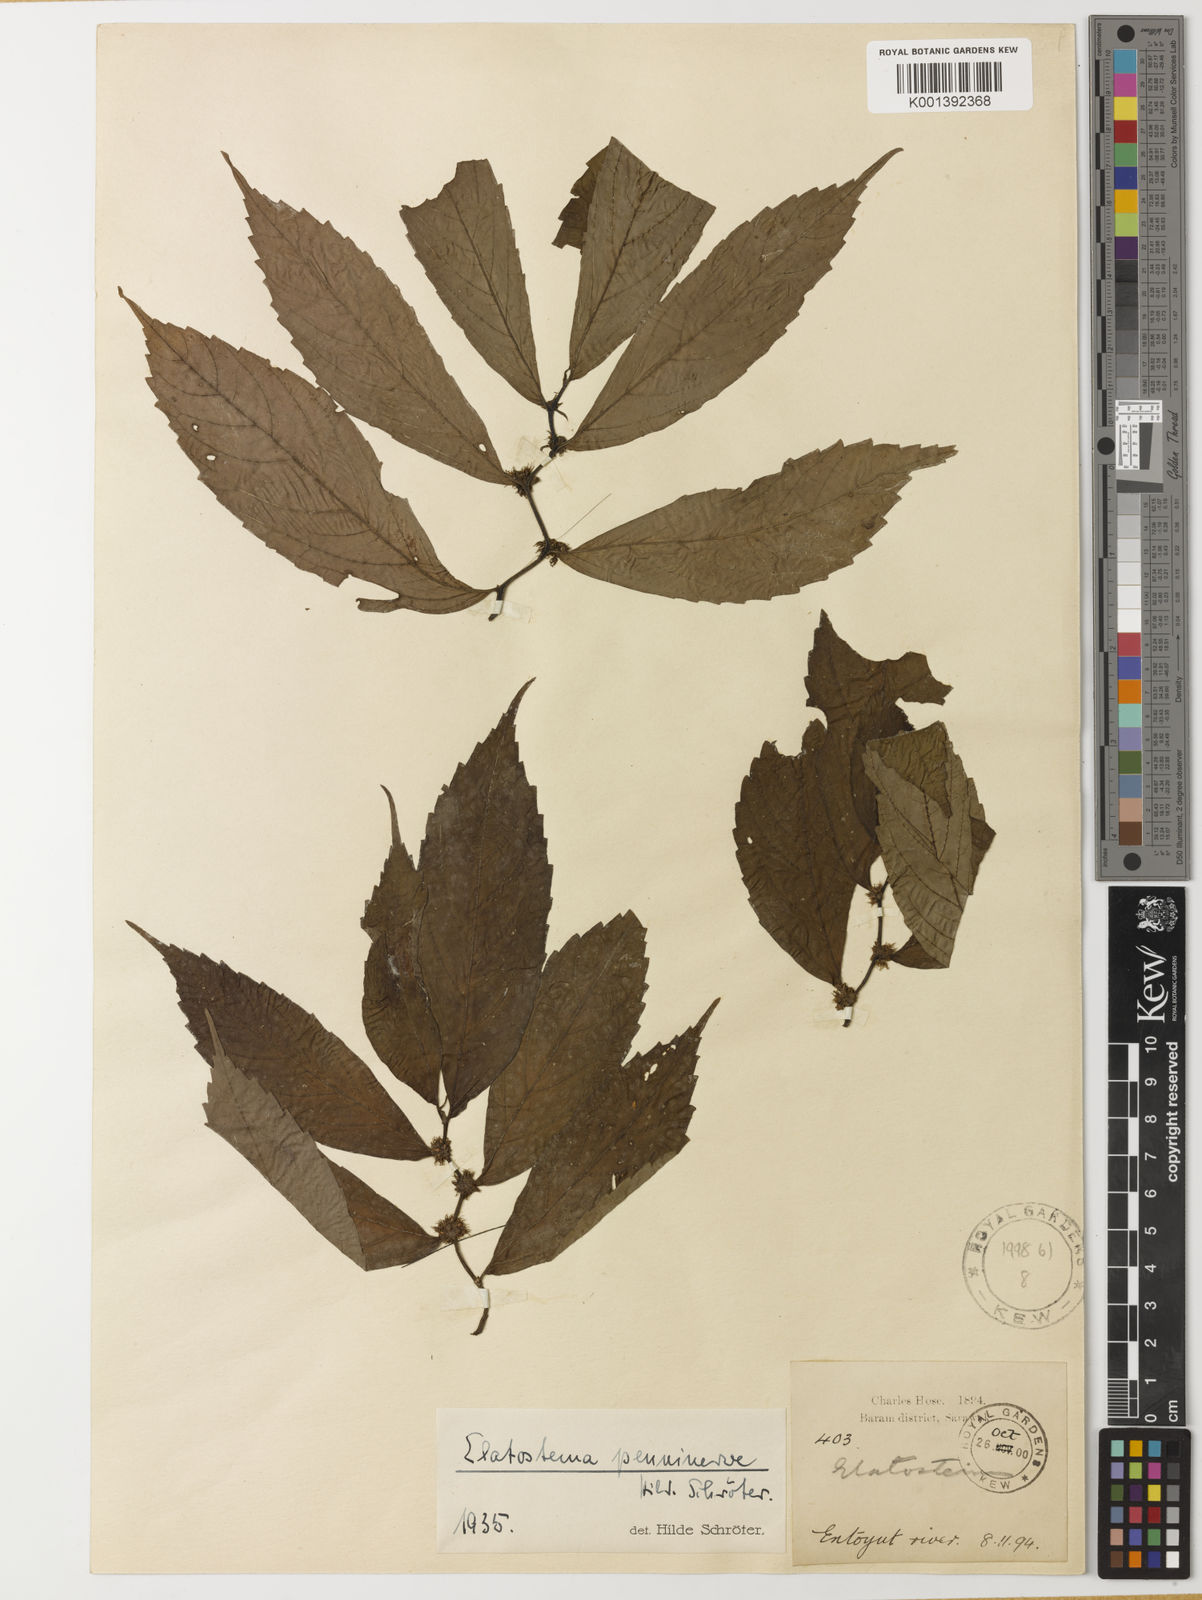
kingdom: Plantae
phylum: Tracheophyta
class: Magnoliopsida
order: Rosales
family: Urticaceae
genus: Elatostema
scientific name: Elatostema penninerve
